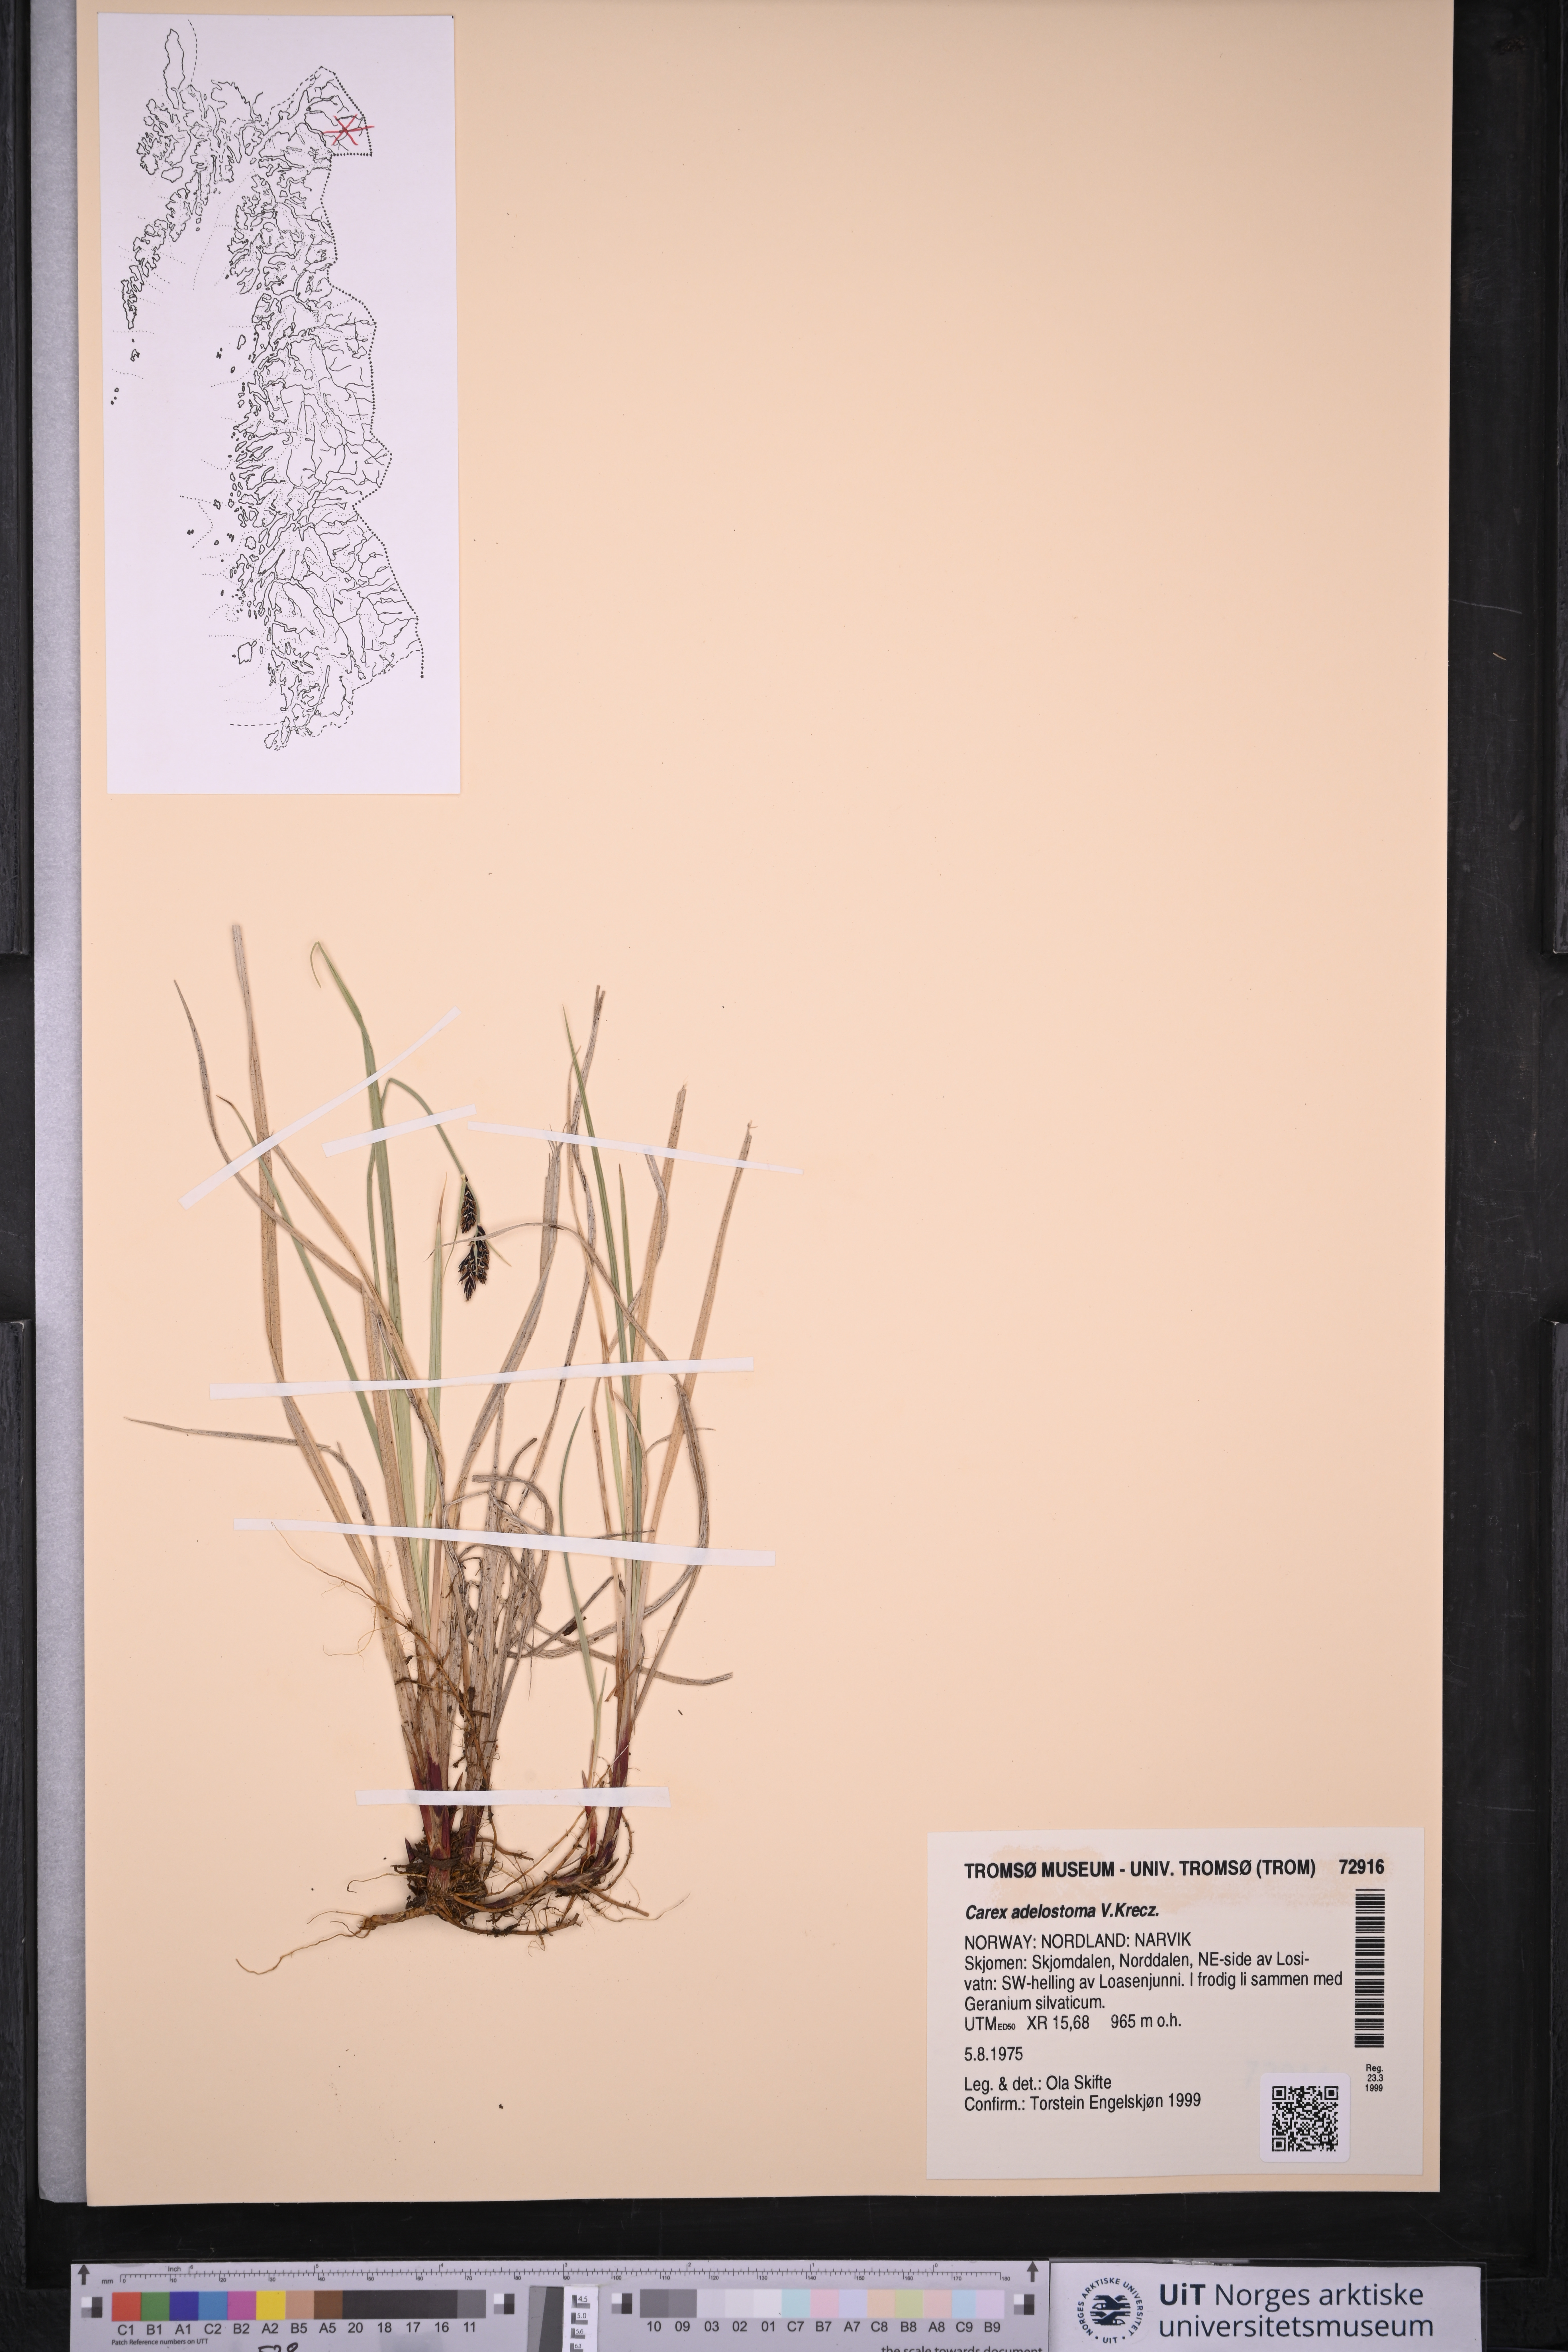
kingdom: Plantae
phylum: Tracheophyta
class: Liliopsida
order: Poales
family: Cyperaceae
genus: Carex
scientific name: Carex adelostoma
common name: Circumpolar sedge
